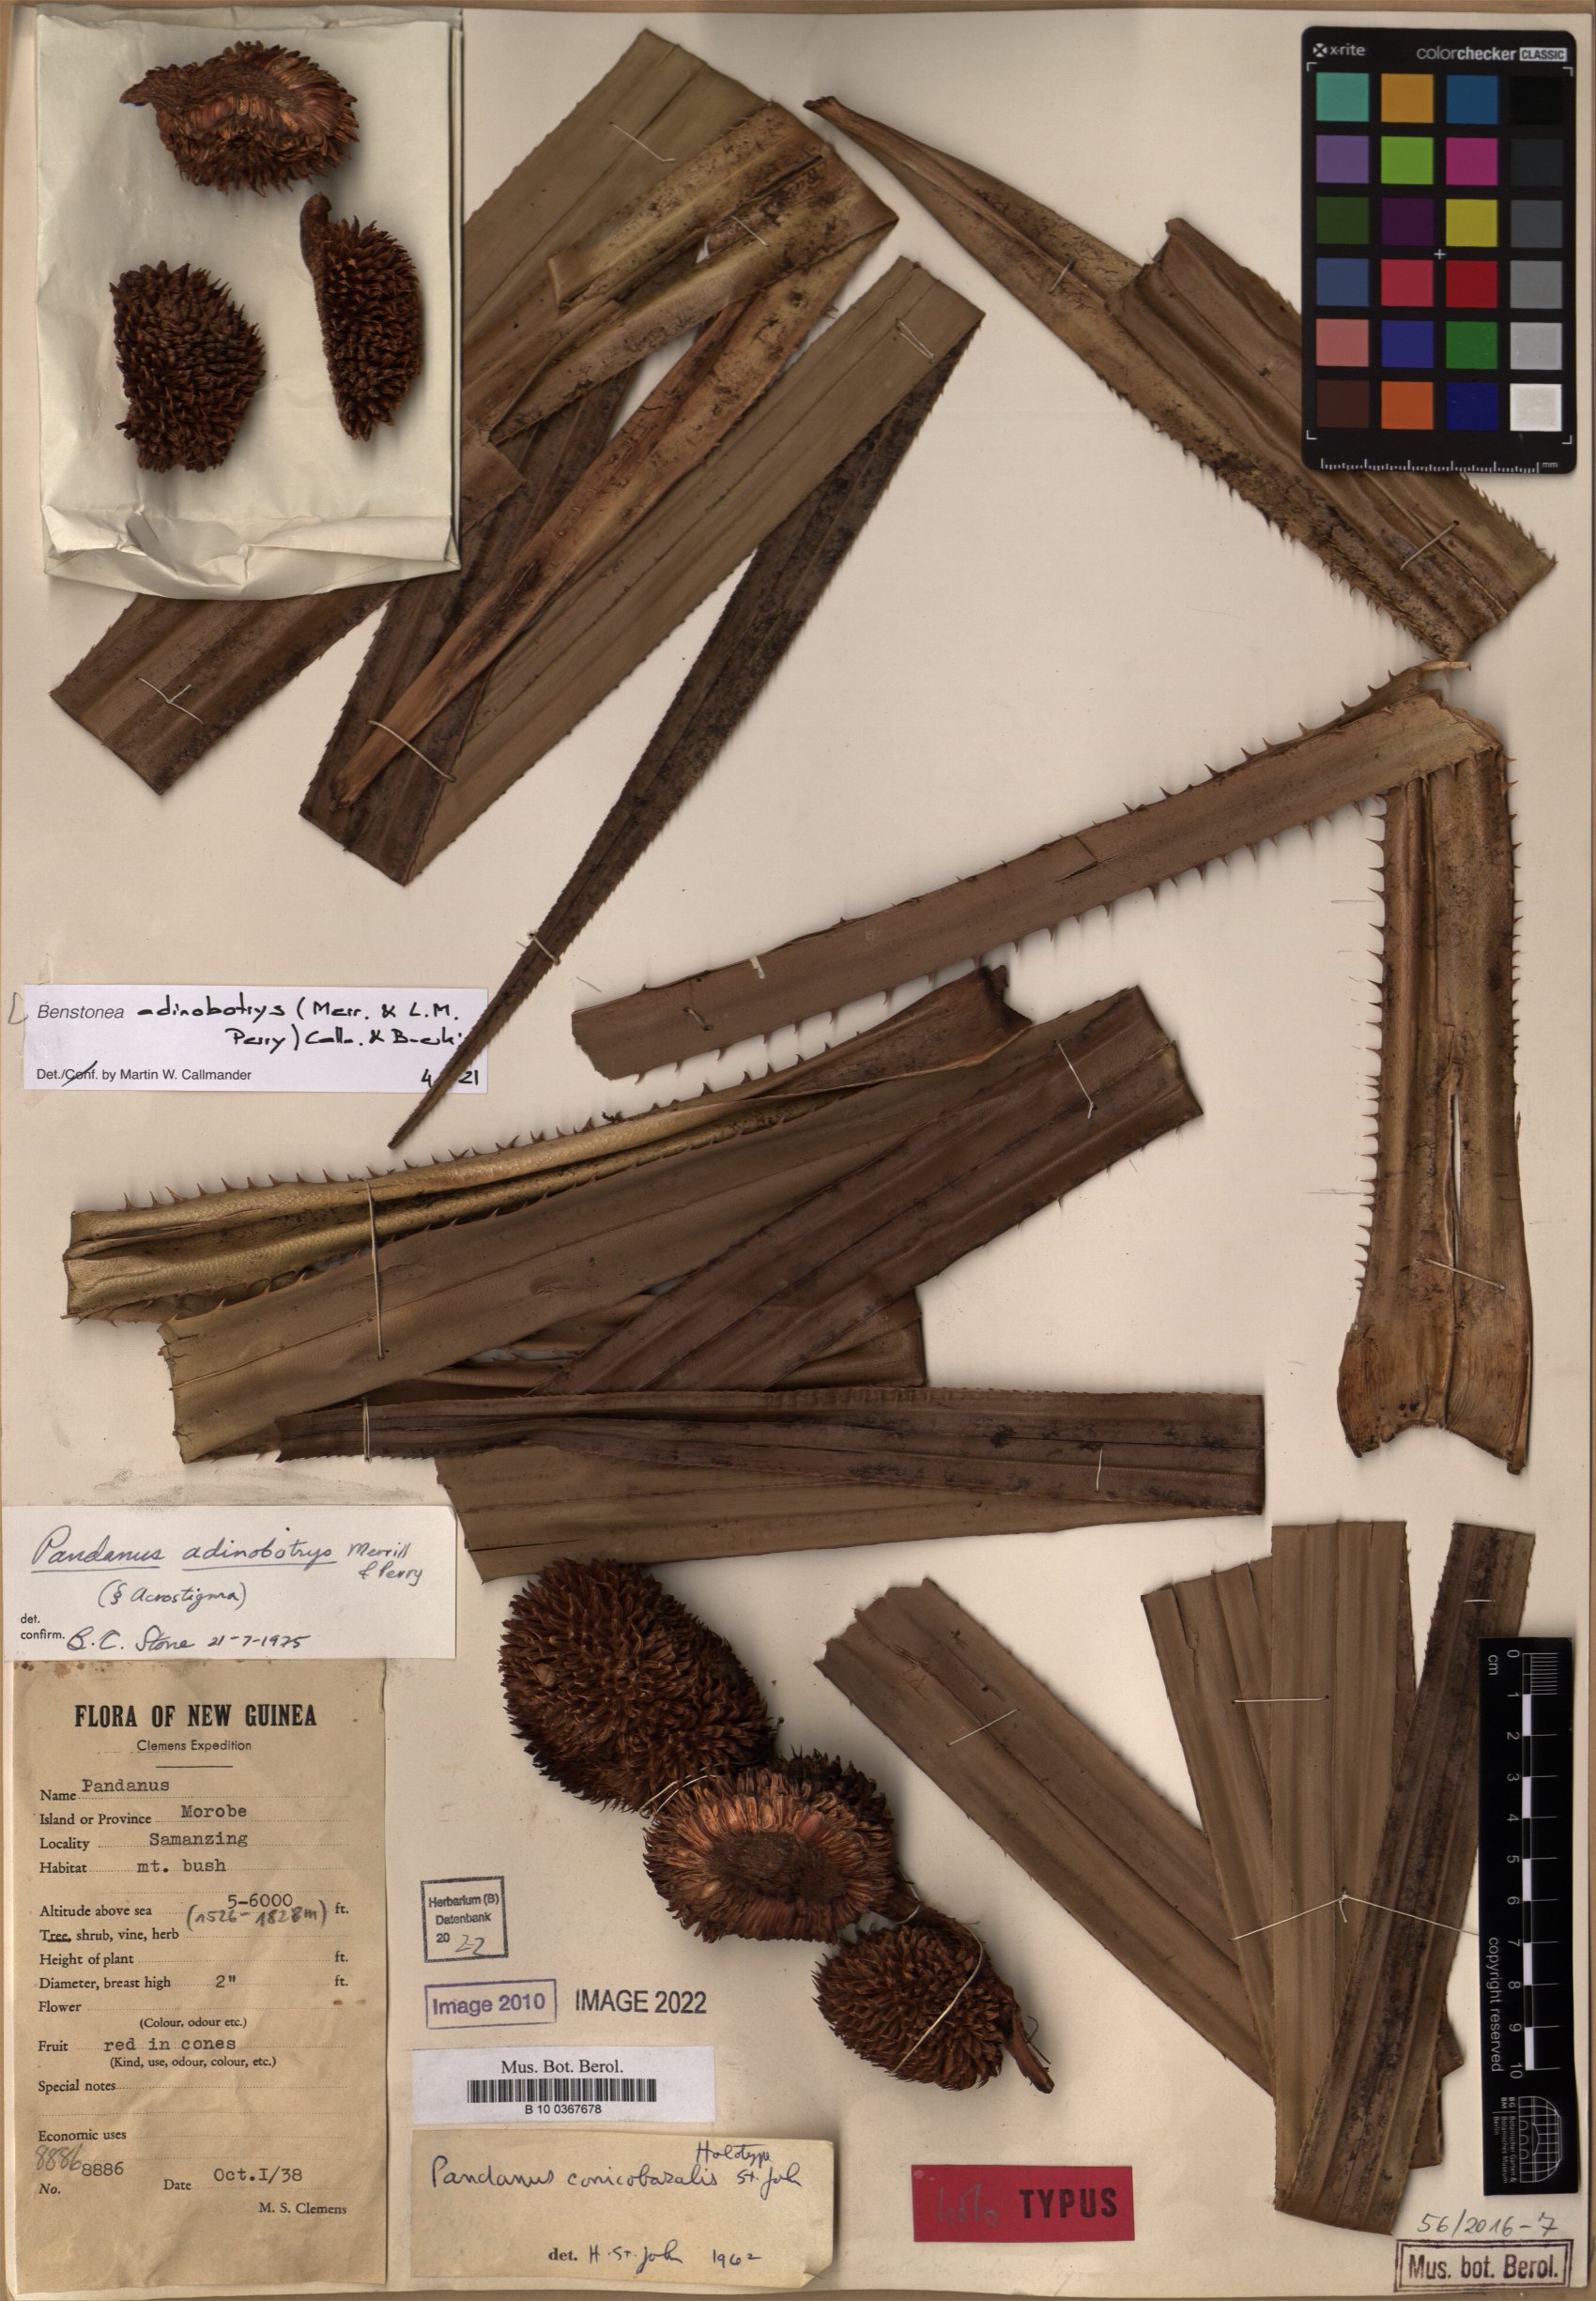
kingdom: Plantae
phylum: Tracheophyta
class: Liliopsida
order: Pandanales
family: Pandanaceae
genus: Benstonea
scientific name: Benstonea adinobotrys
